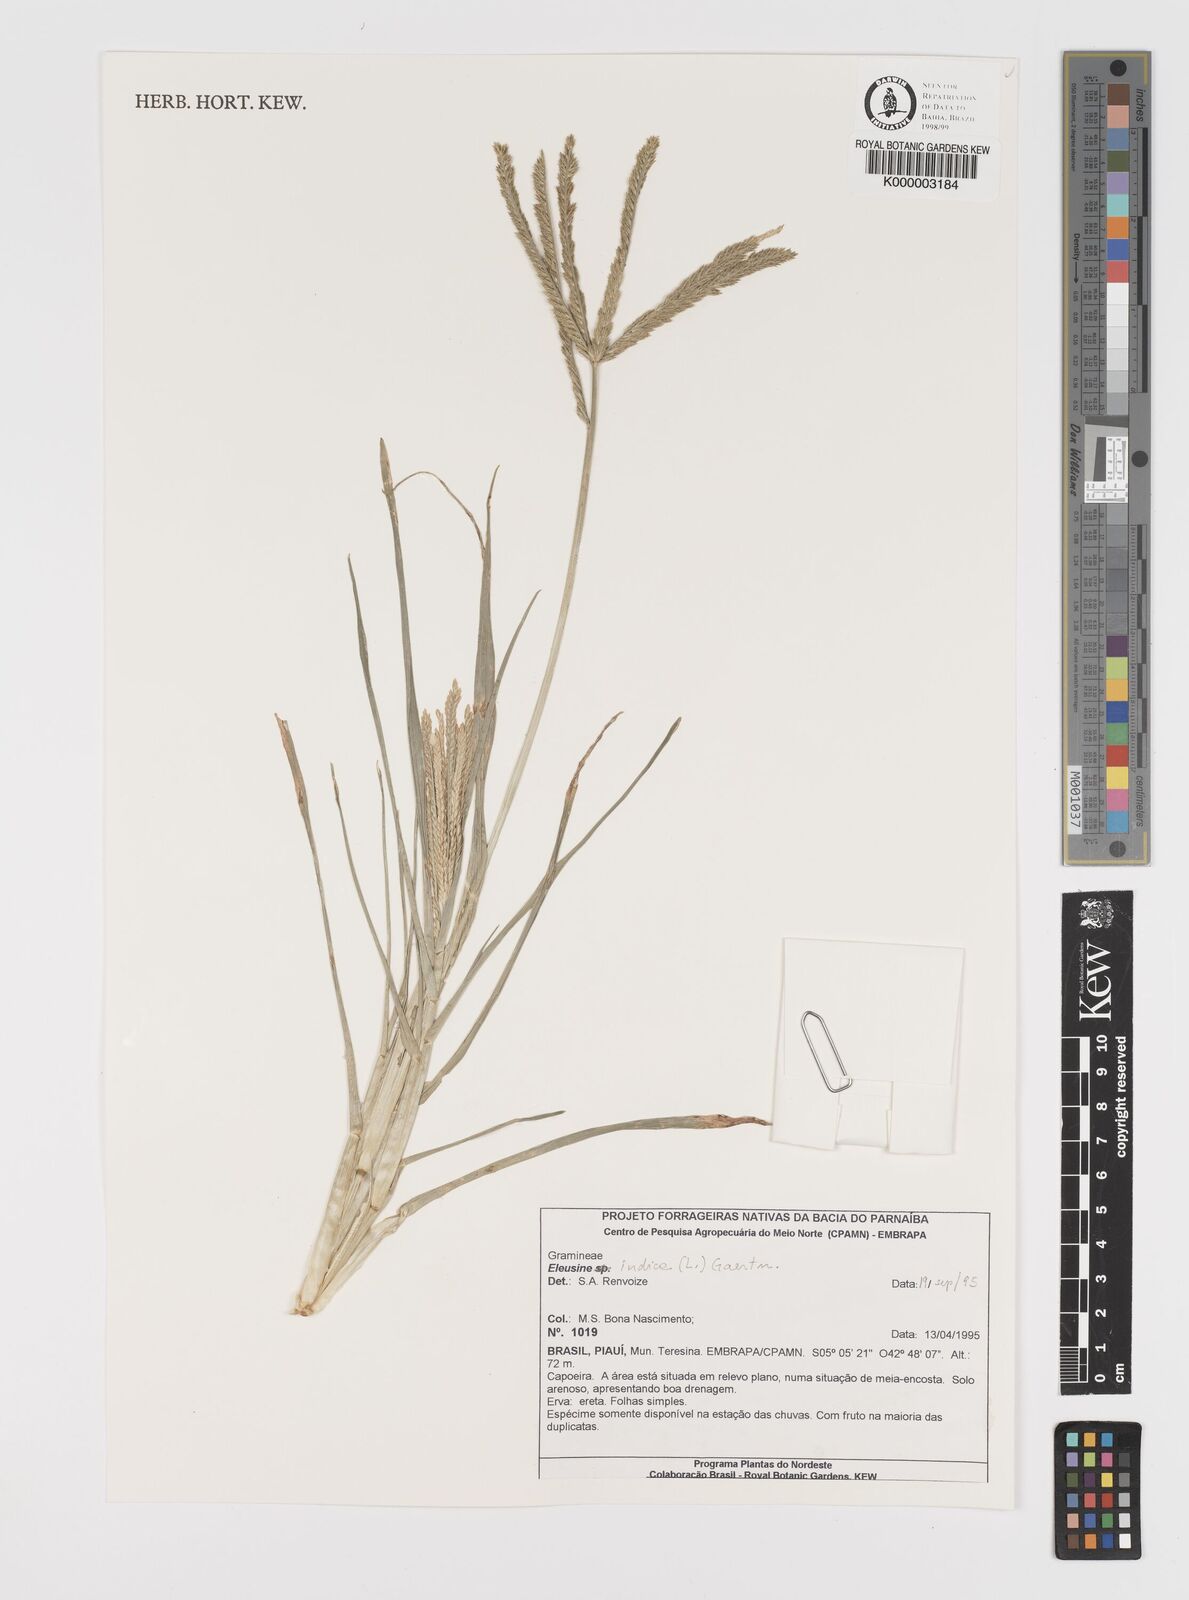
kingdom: Plantae
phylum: Tracheophyta
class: Liliopsida
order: Poales
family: Poaceae
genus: Eleusine
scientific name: Eleusine indica
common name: Yard-grass
